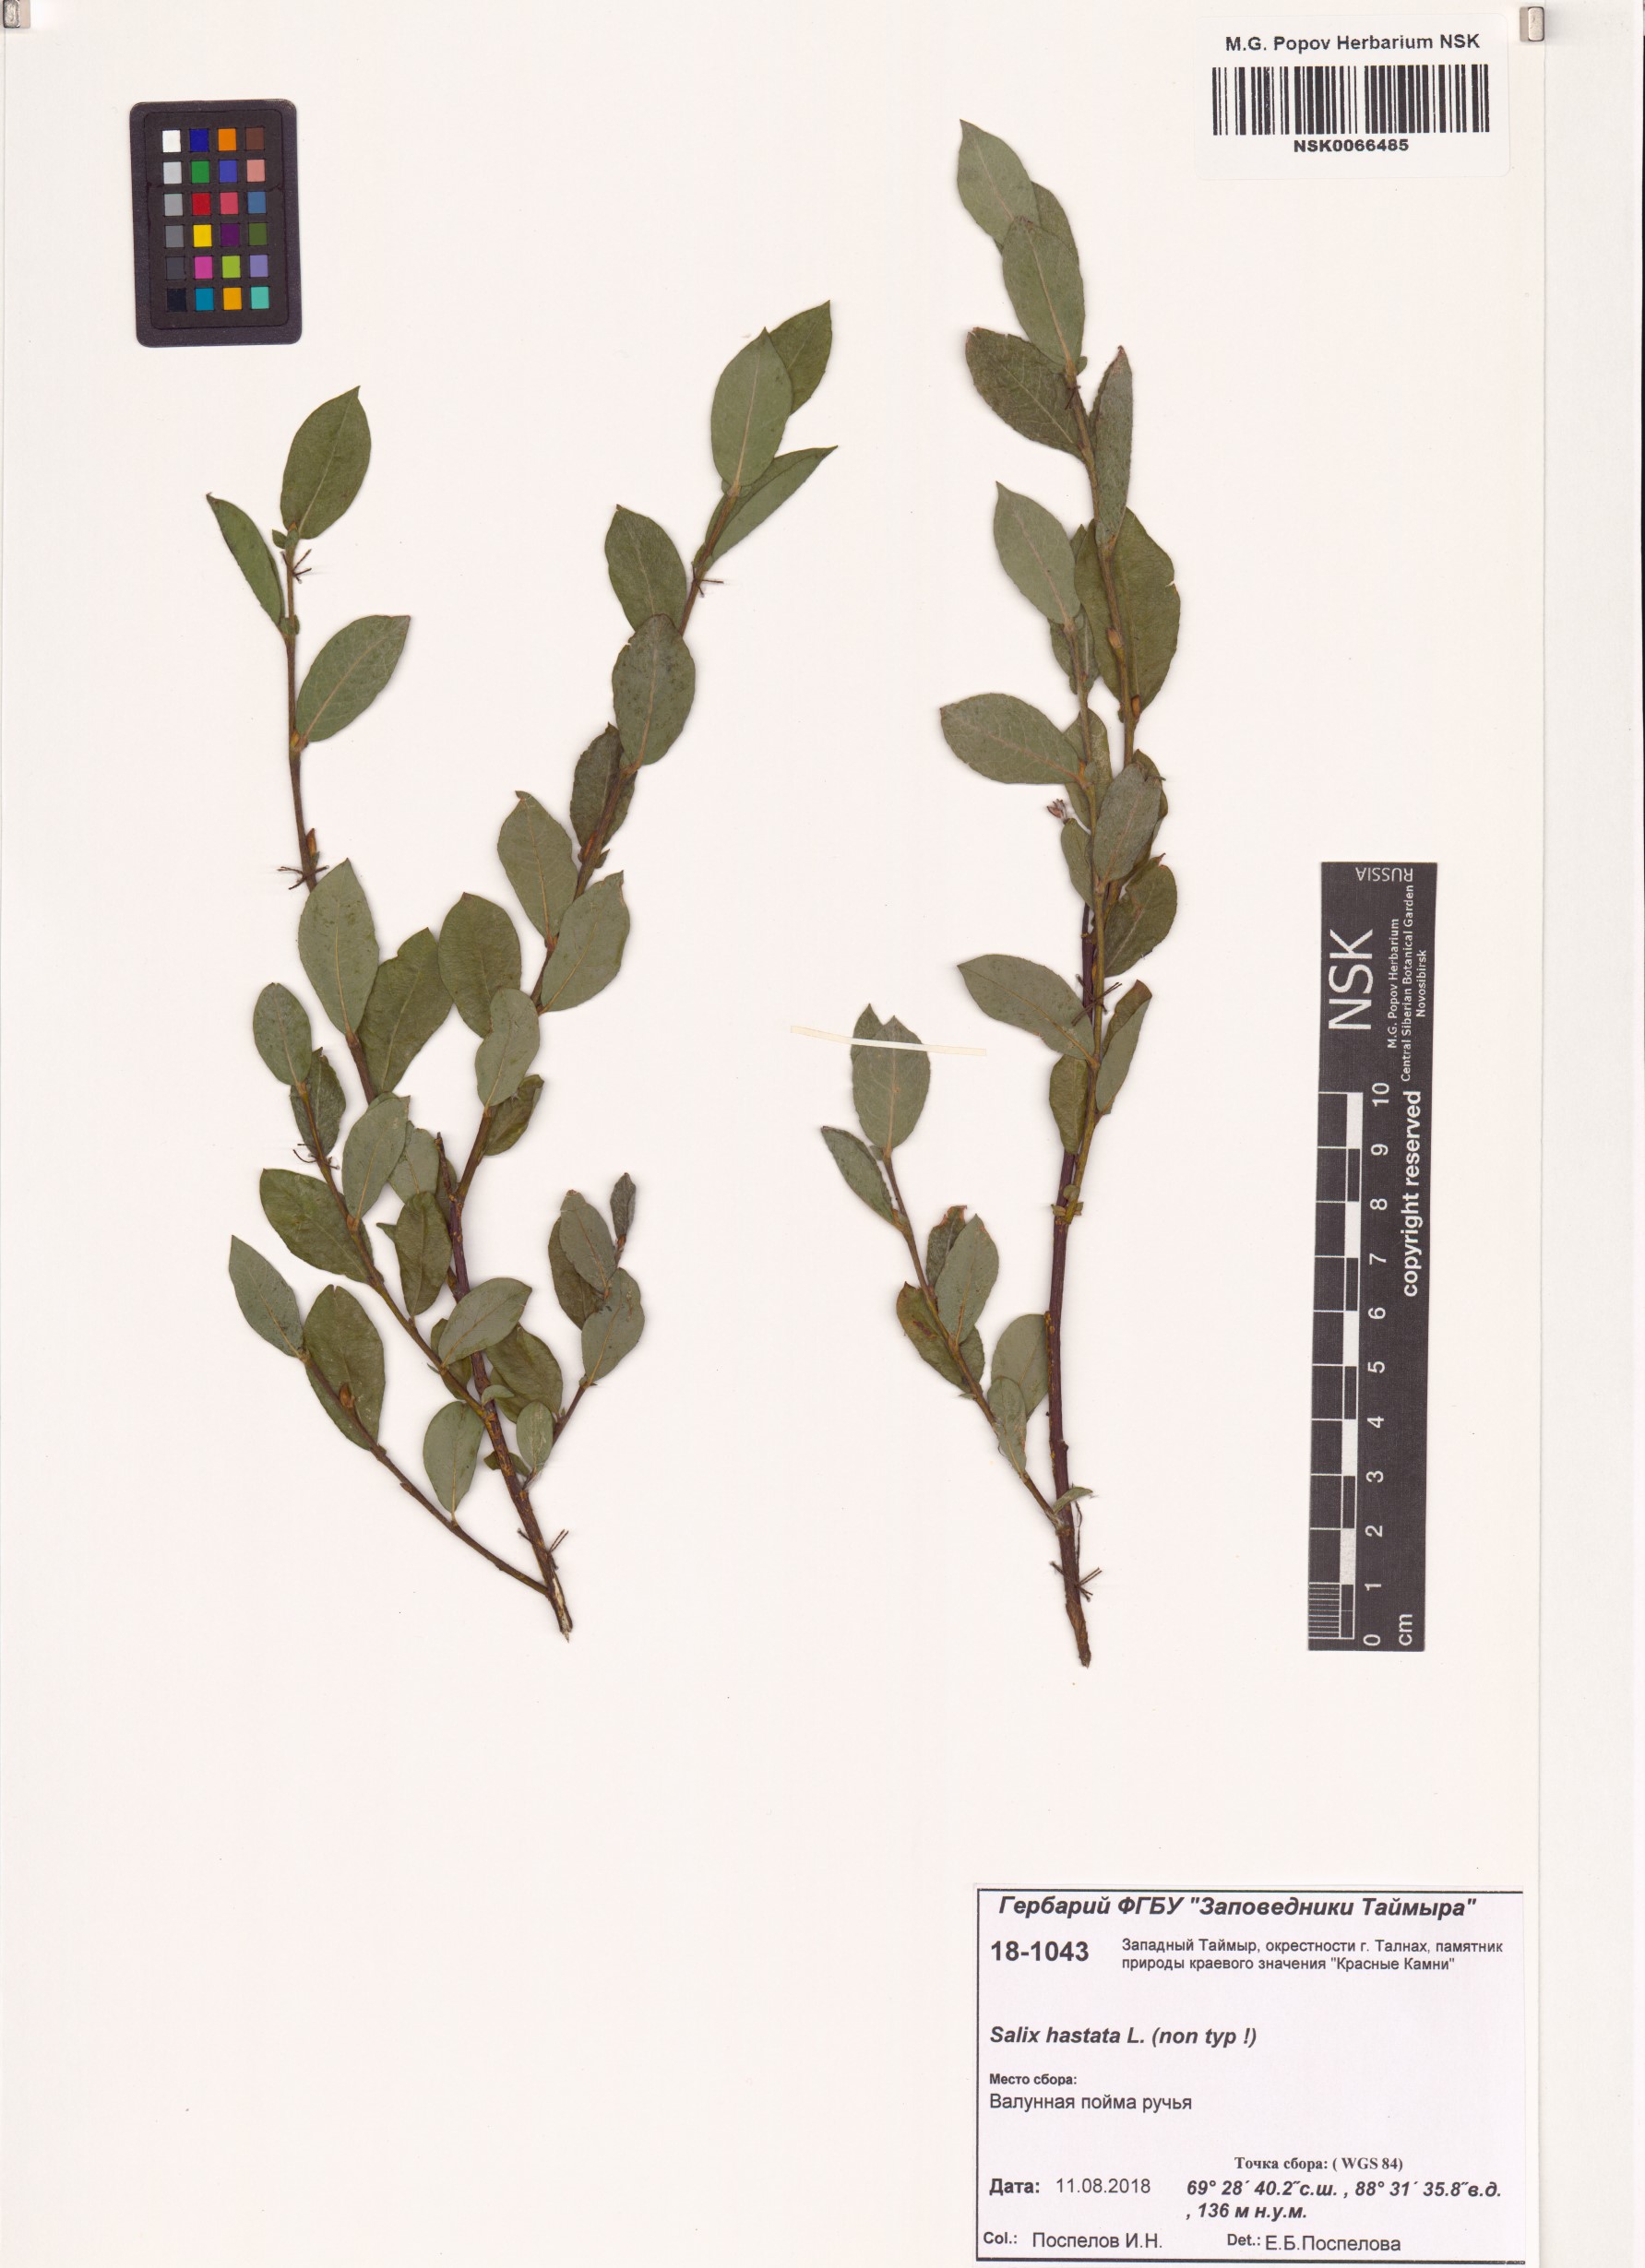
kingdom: Plantae
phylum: Tracheophyta
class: Magnoliopsida
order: Malpighiales
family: Salicaceae
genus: Salix
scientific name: Salix hastata
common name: Halberd willow
